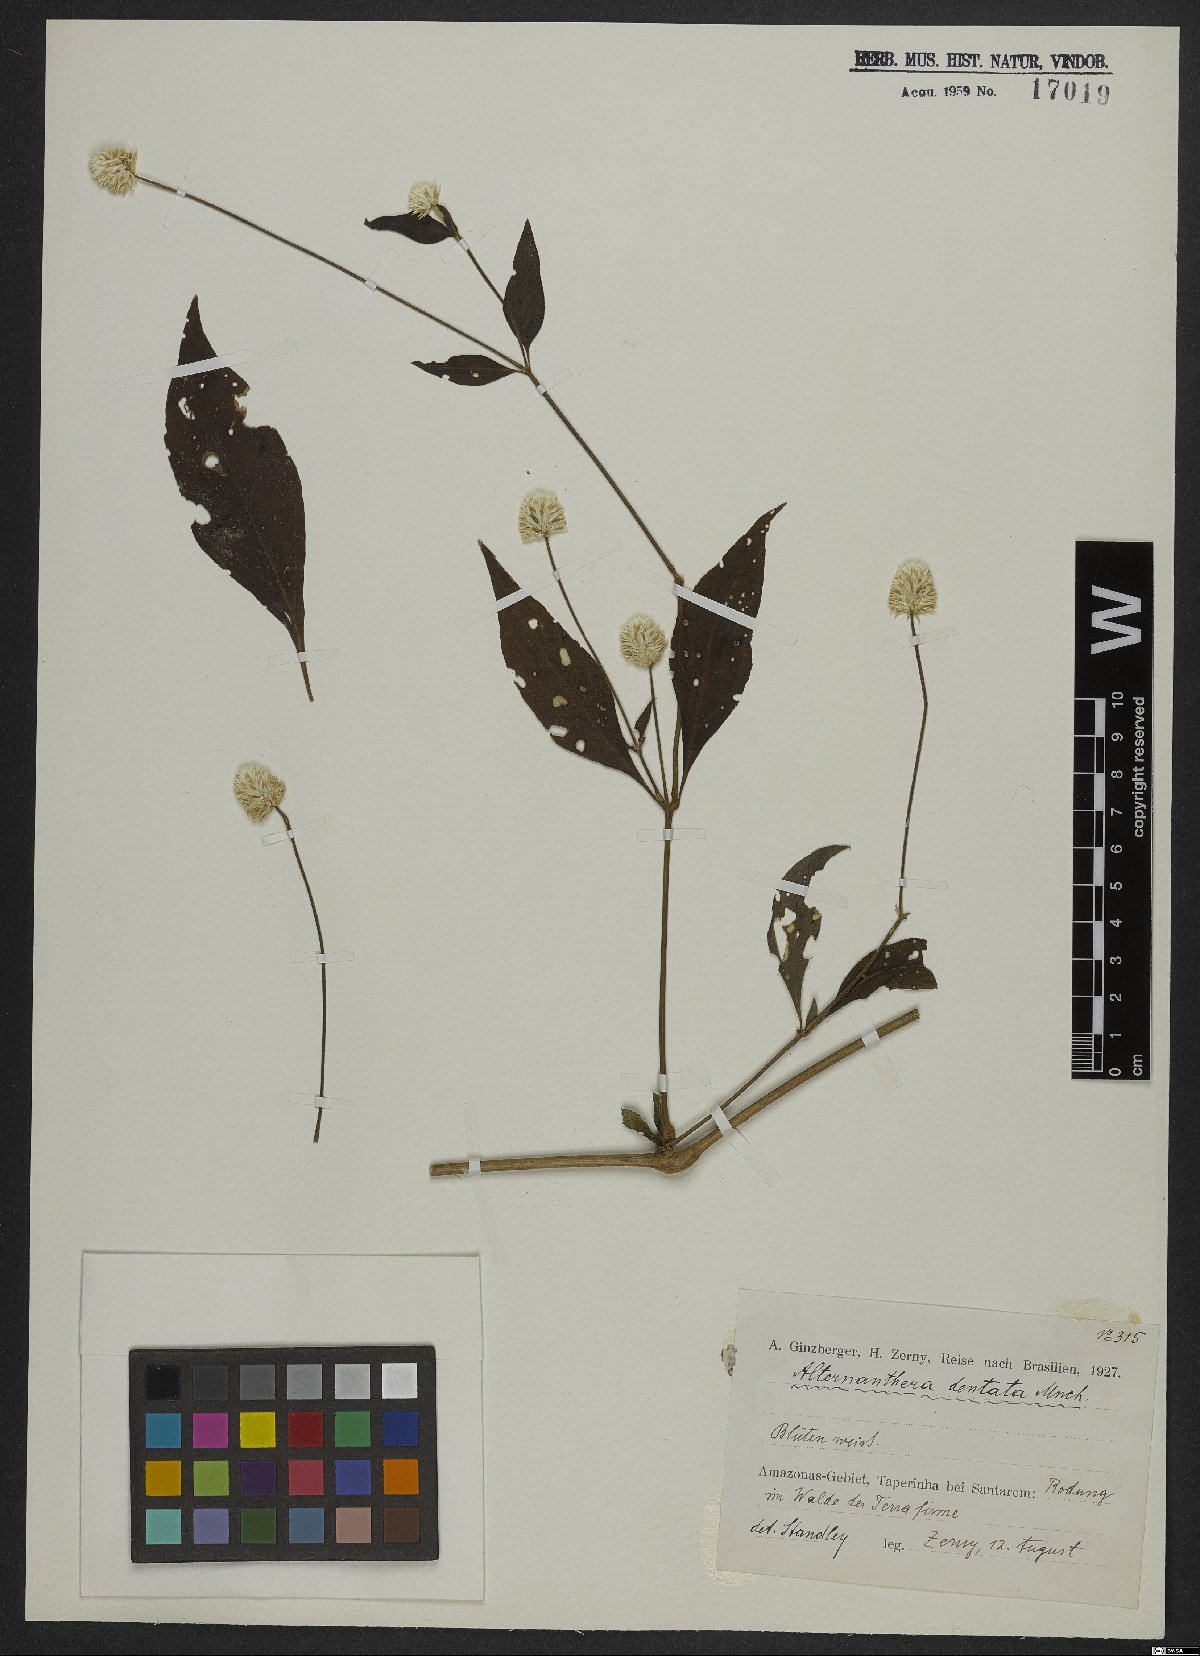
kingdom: Plantae
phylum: Tracheophyta
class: Magnoliopsida
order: Caryophyllales
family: Amaranthaceae
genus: Alternanthera
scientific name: Alternanthera ramosissima
